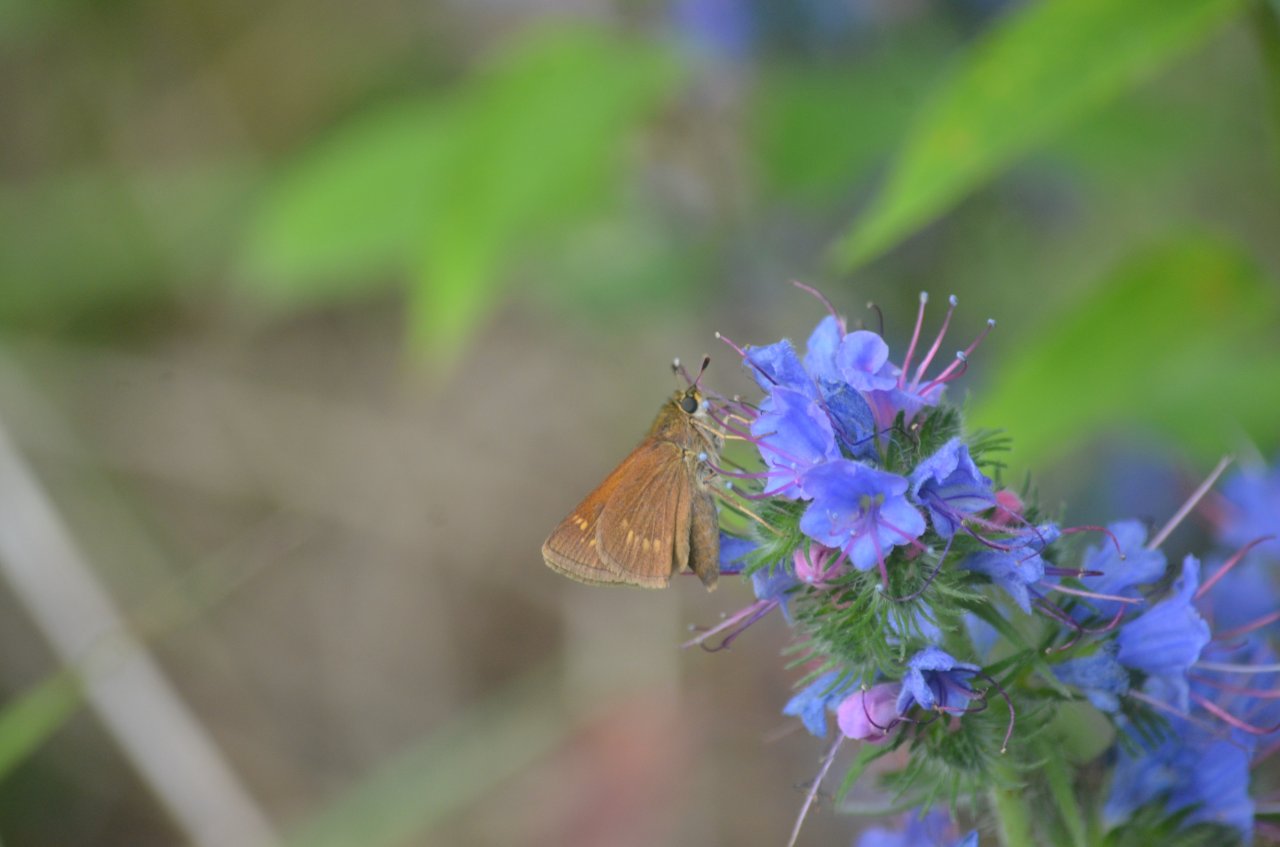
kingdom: Animalia
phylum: Arthropoda
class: Insecta
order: Lepidoptera
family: Hesperiidae
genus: Polites
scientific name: Polites
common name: Crossline Skipper
